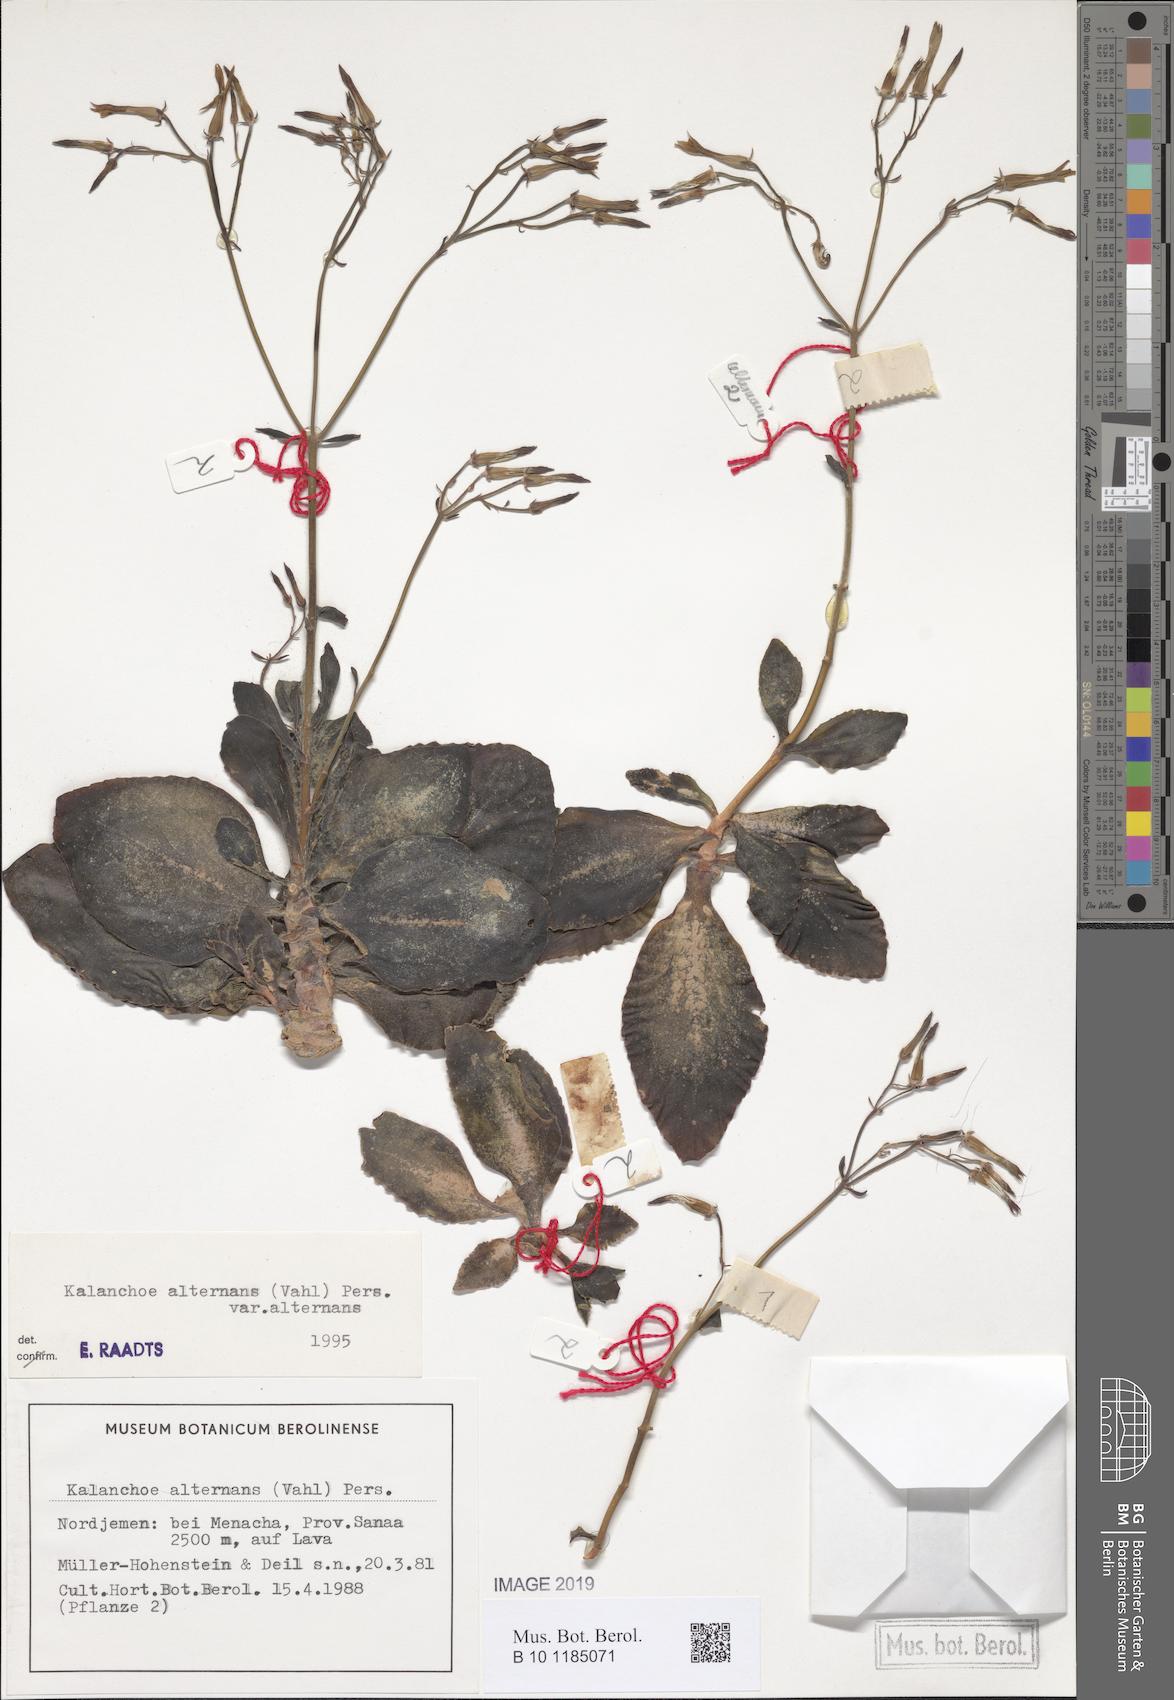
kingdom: Plantae
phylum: Tracheophyta
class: Magnoliopsida
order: Saxifragales
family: Crassulaceae
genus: Kalanchoe
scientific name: Kalanchoe alternans
